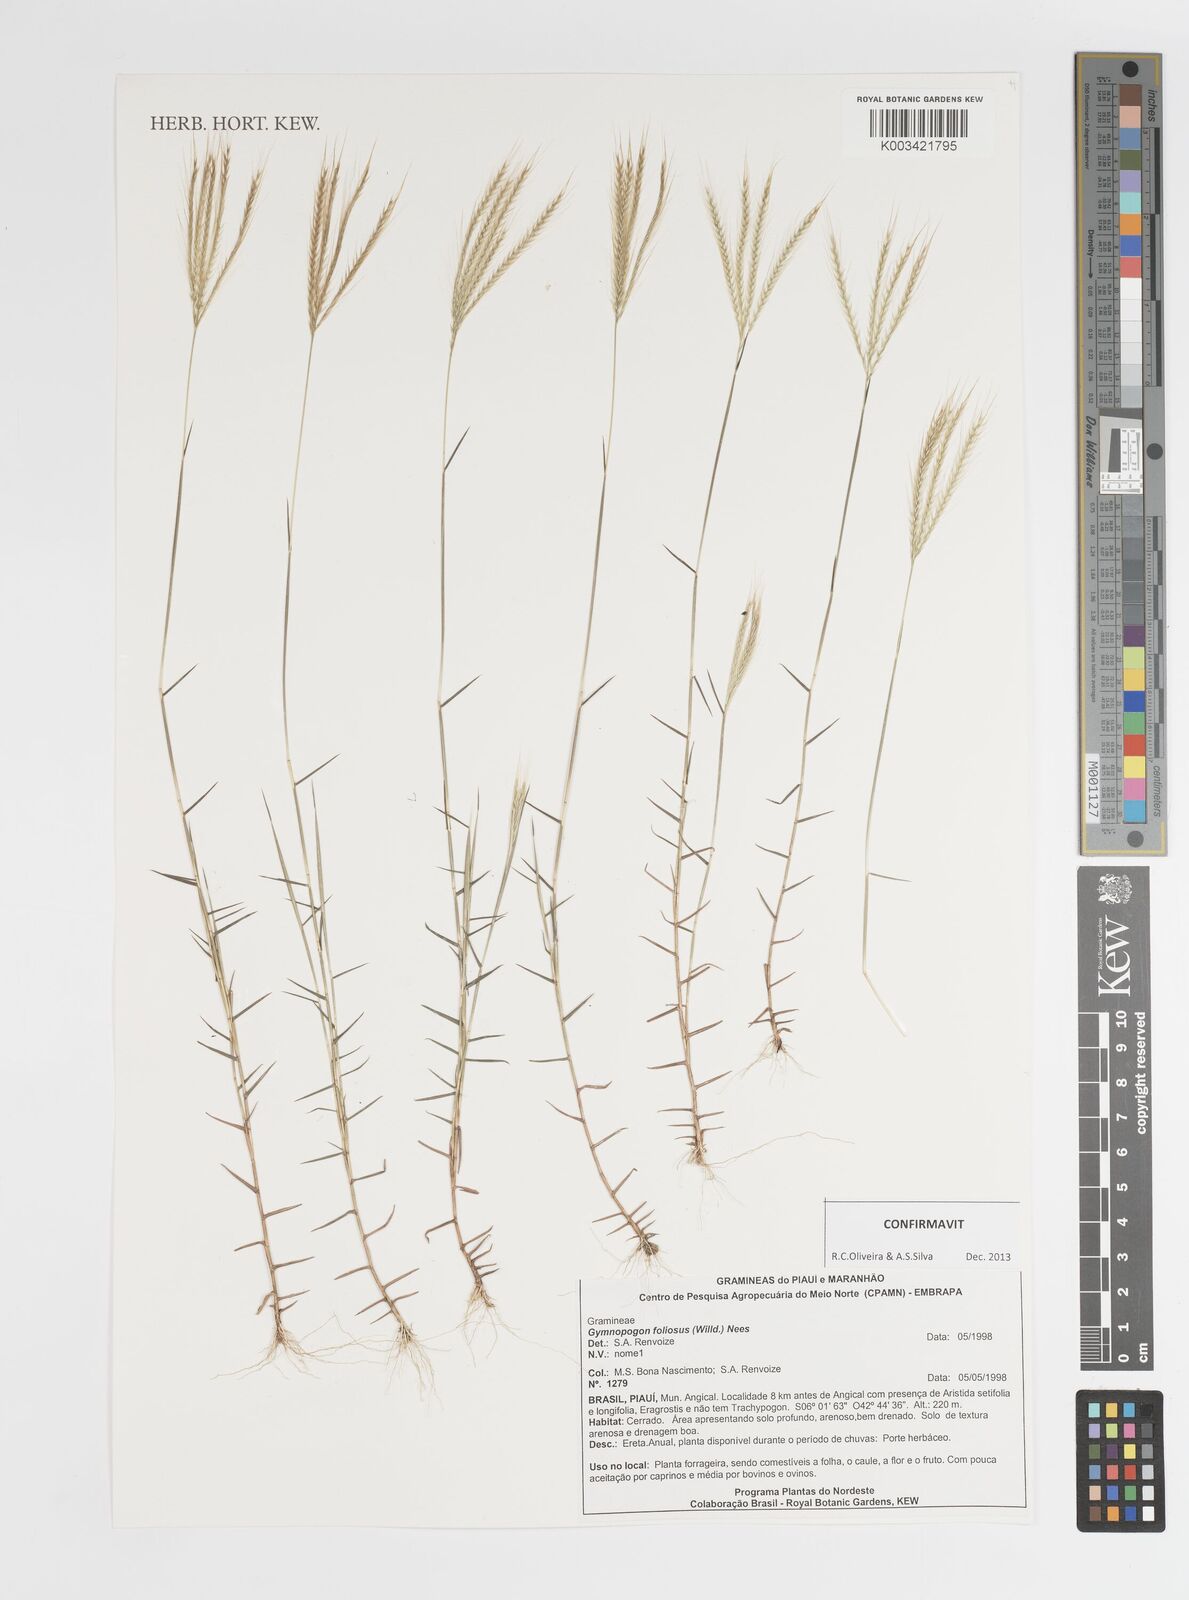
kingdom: Plantae
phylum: Tracheophyta
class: Liliopsida
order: Poales
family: Poaceae
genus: Gymnopogon
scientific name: Gymnopogon foliosus
